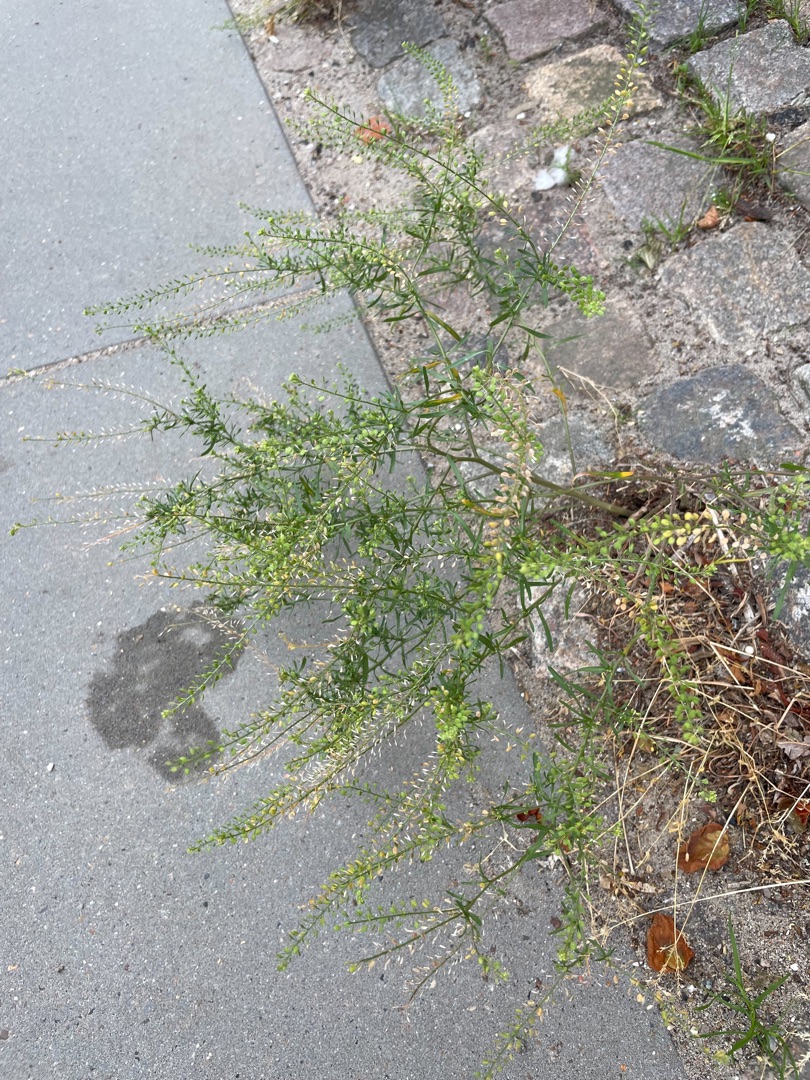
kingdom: Plantae
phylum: Tracheophyta
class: Magnoliopsida
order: Brassicales
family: Brassicaceae
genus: Lepidium
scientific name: Lepidium ruderale
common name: Stinkende karse
